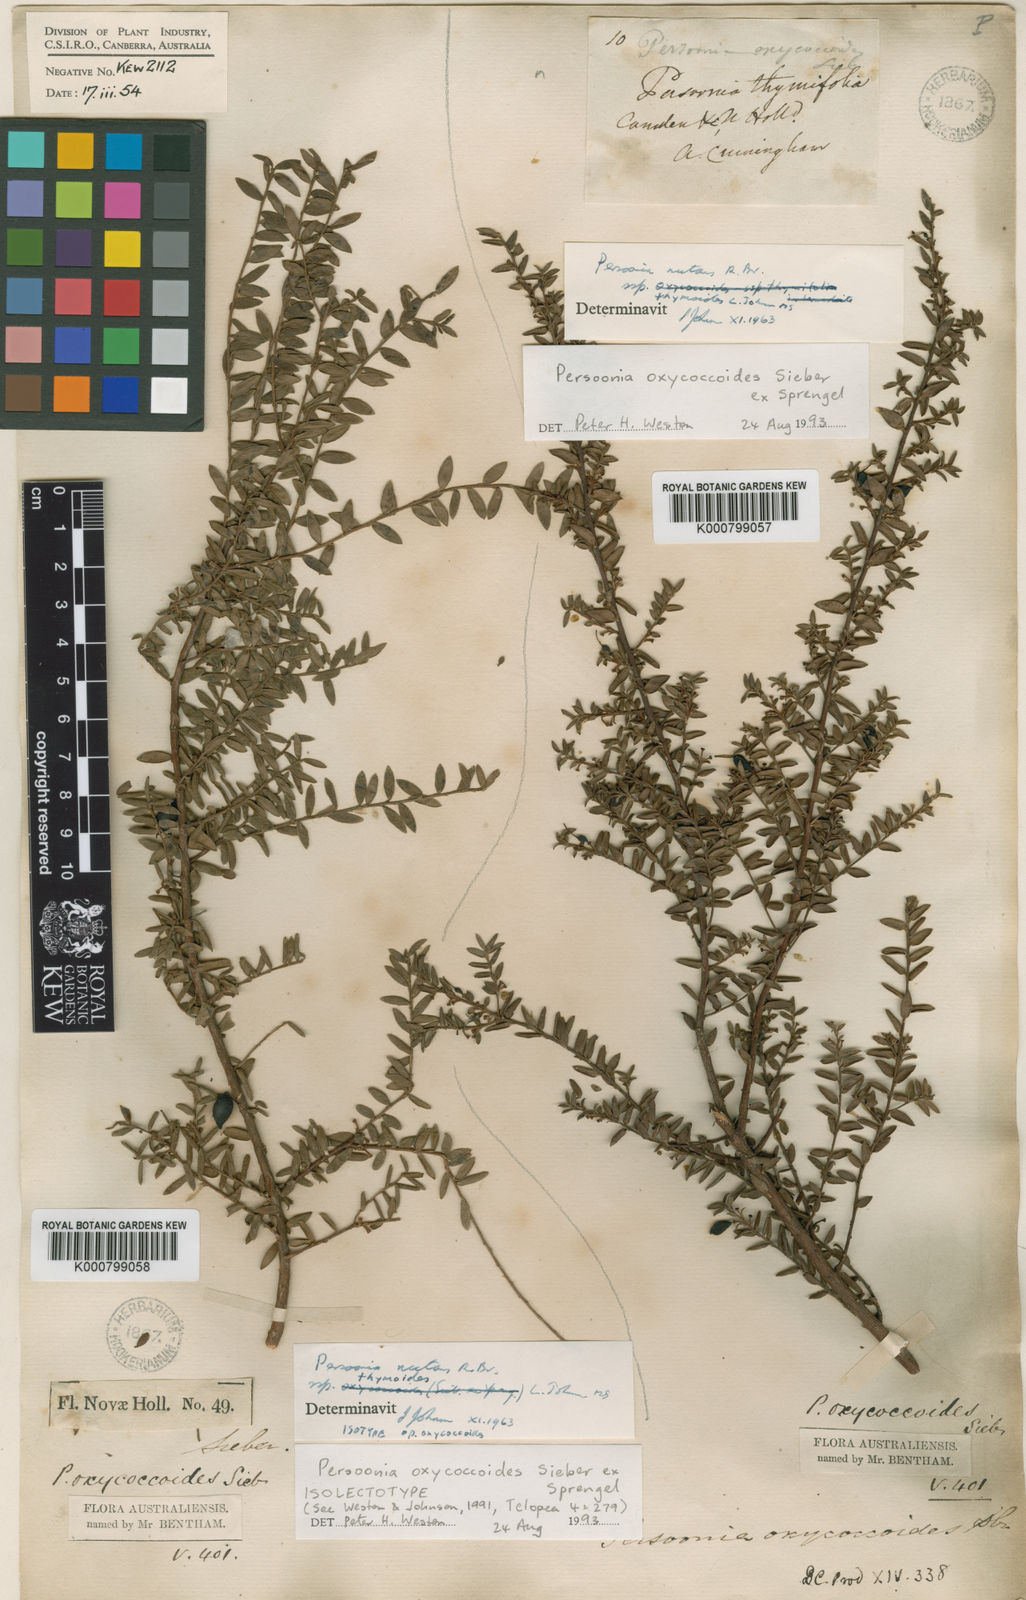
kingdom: Plantae
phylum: Tracheophyta
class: Magnoliopsida
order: Proteales
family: Proteaceae
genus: Persoonia
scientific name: Persoonia oxycoccoides
